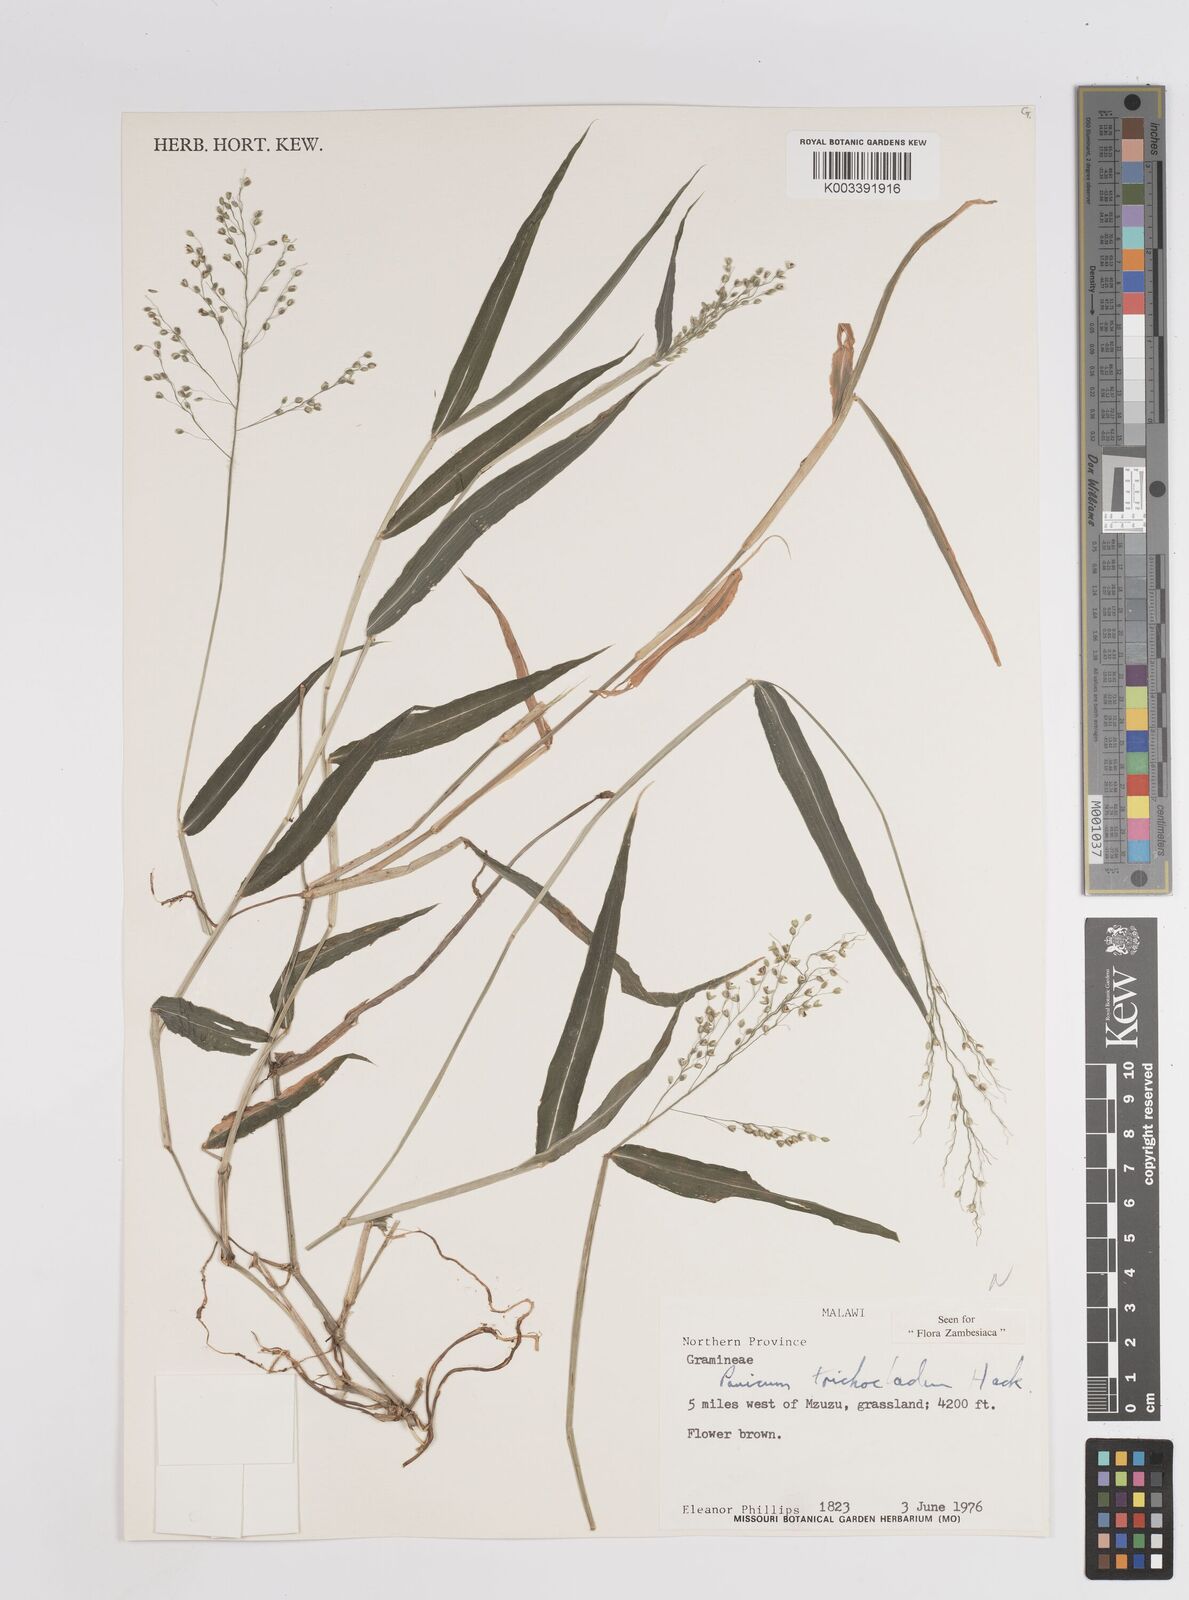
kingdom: Plantae
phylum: Tracheophyta
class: Liliopsida
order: Poales
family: Poaceae
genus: Panicum
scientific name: Panicum trichocladum
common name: Donkey grass
